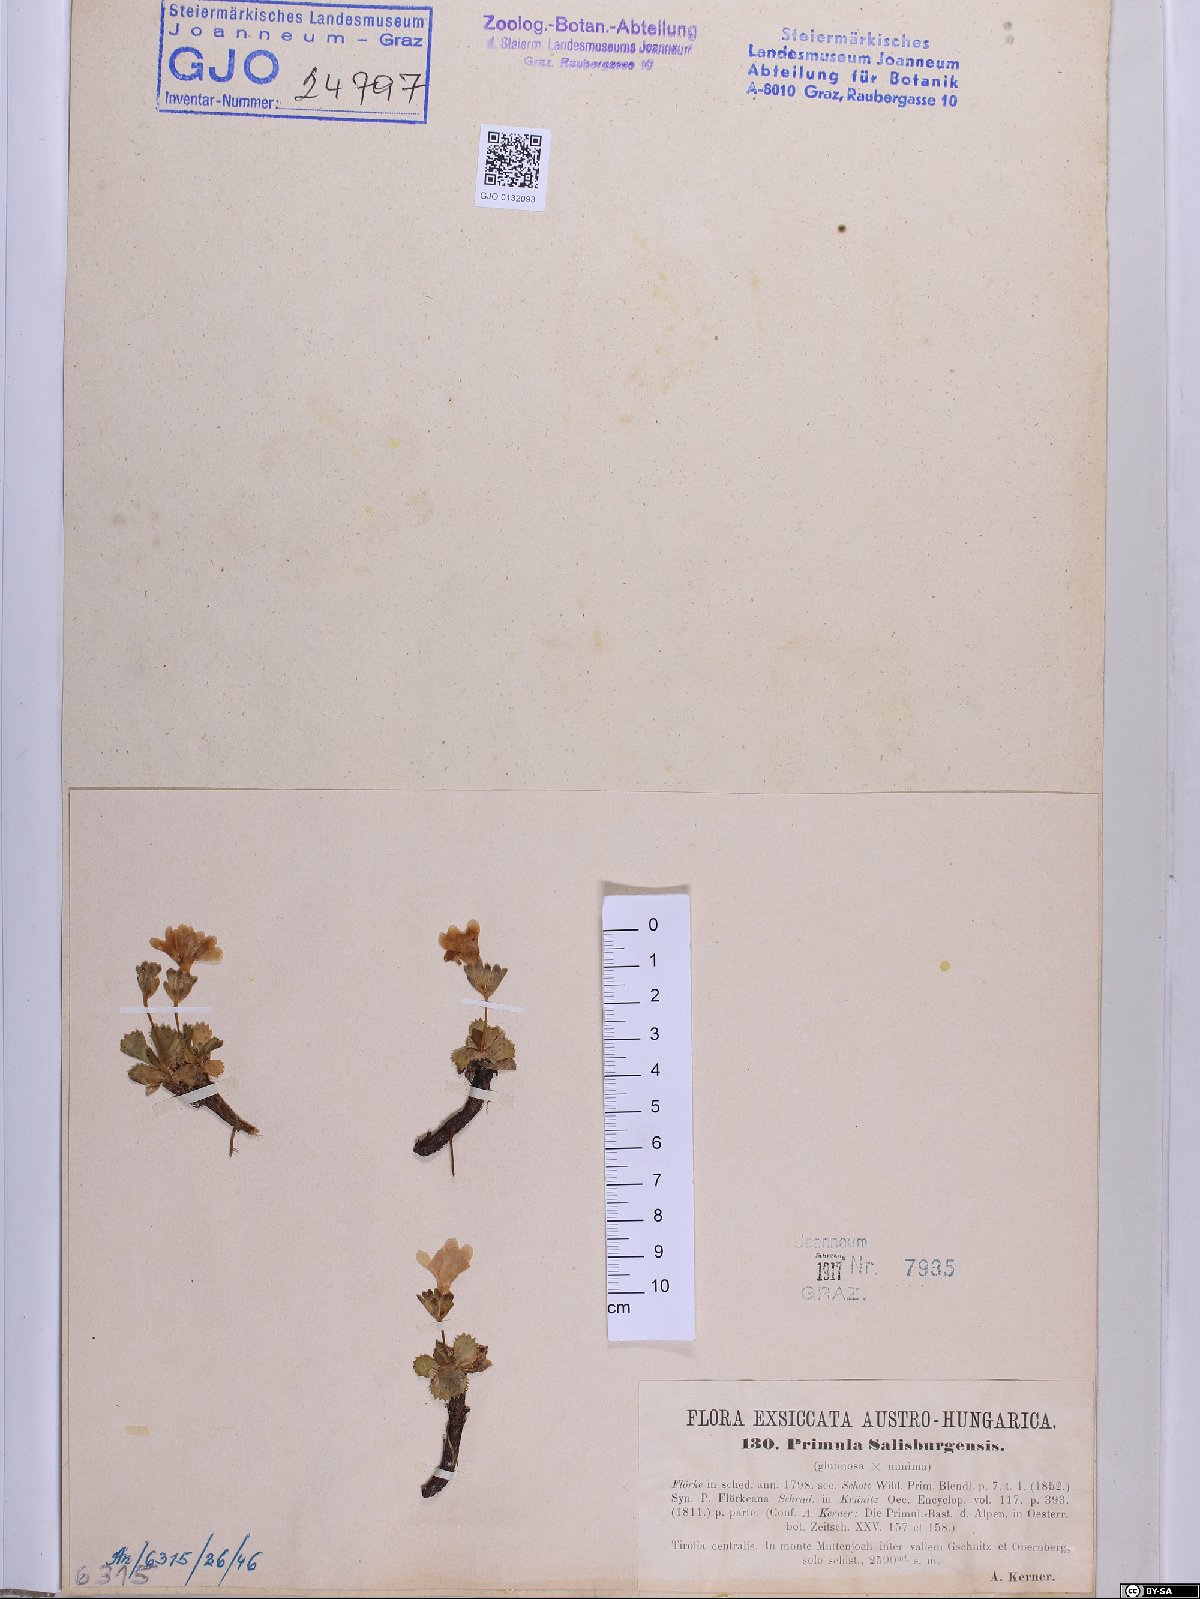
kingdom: Plantae
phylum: Tracheophyta
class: Magnoliopsida
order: Ericales
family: Primulaceae
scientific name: Primulaceae
